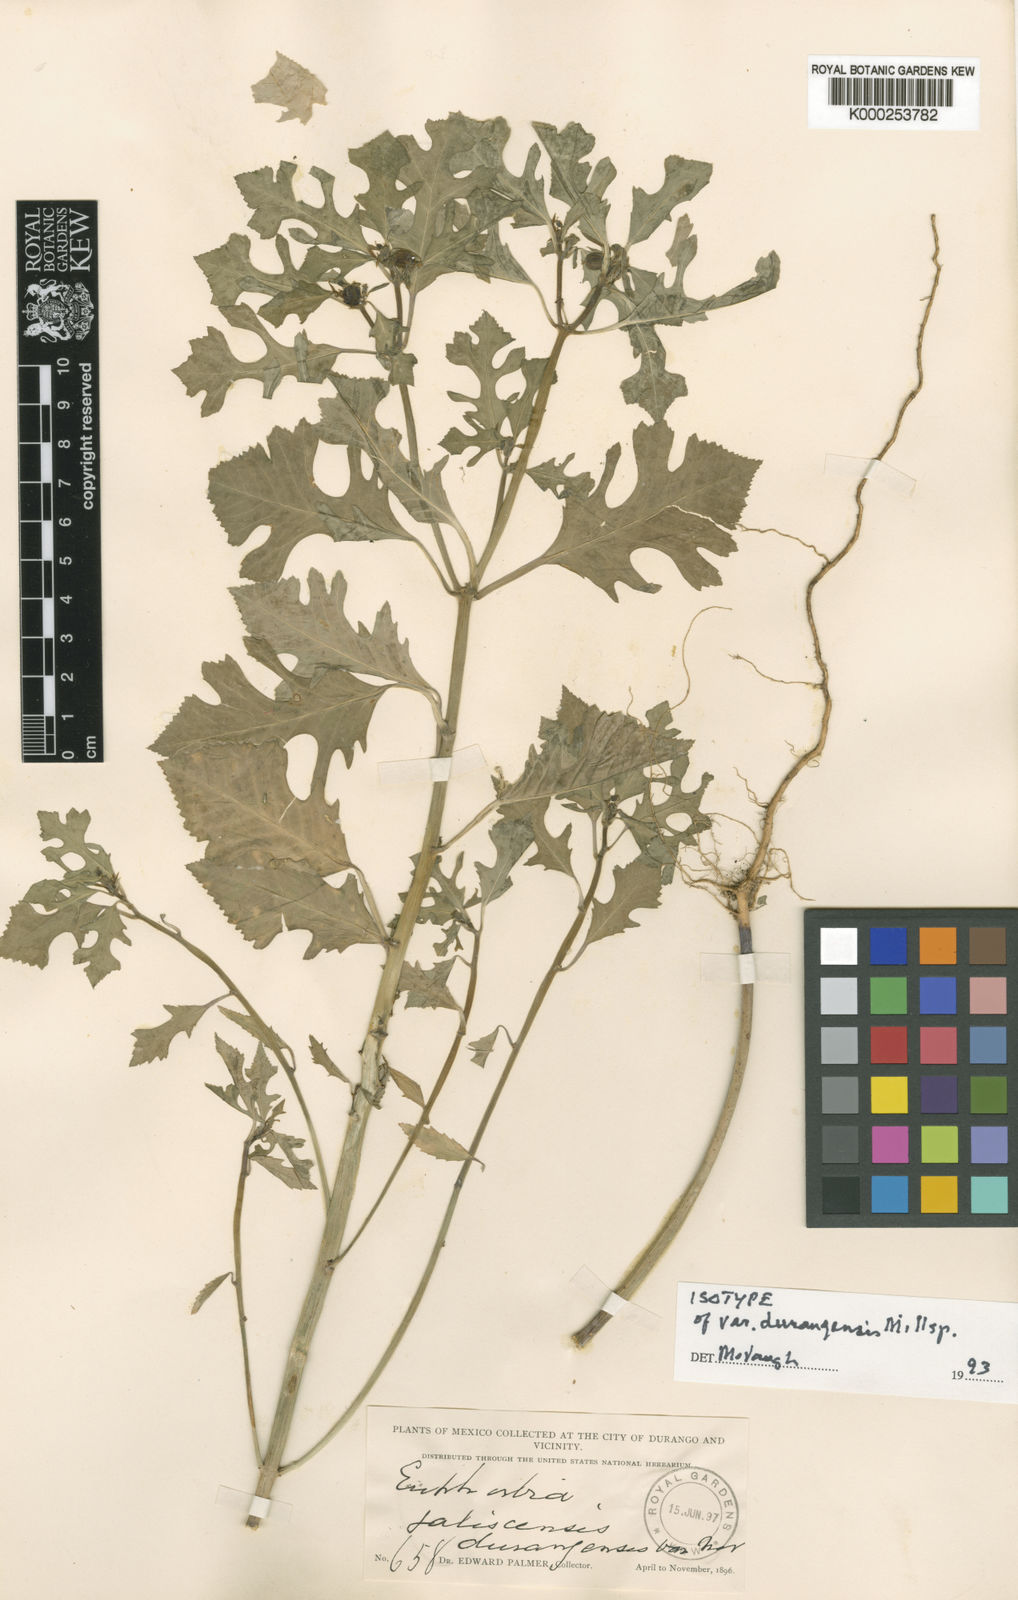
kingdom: Plantae
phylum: Tracheophyta
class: Magnoliopsida
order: Malpighiales
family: Euphorbiaceae
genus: Euphorbia
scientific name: Euphorbia jaliscensis
